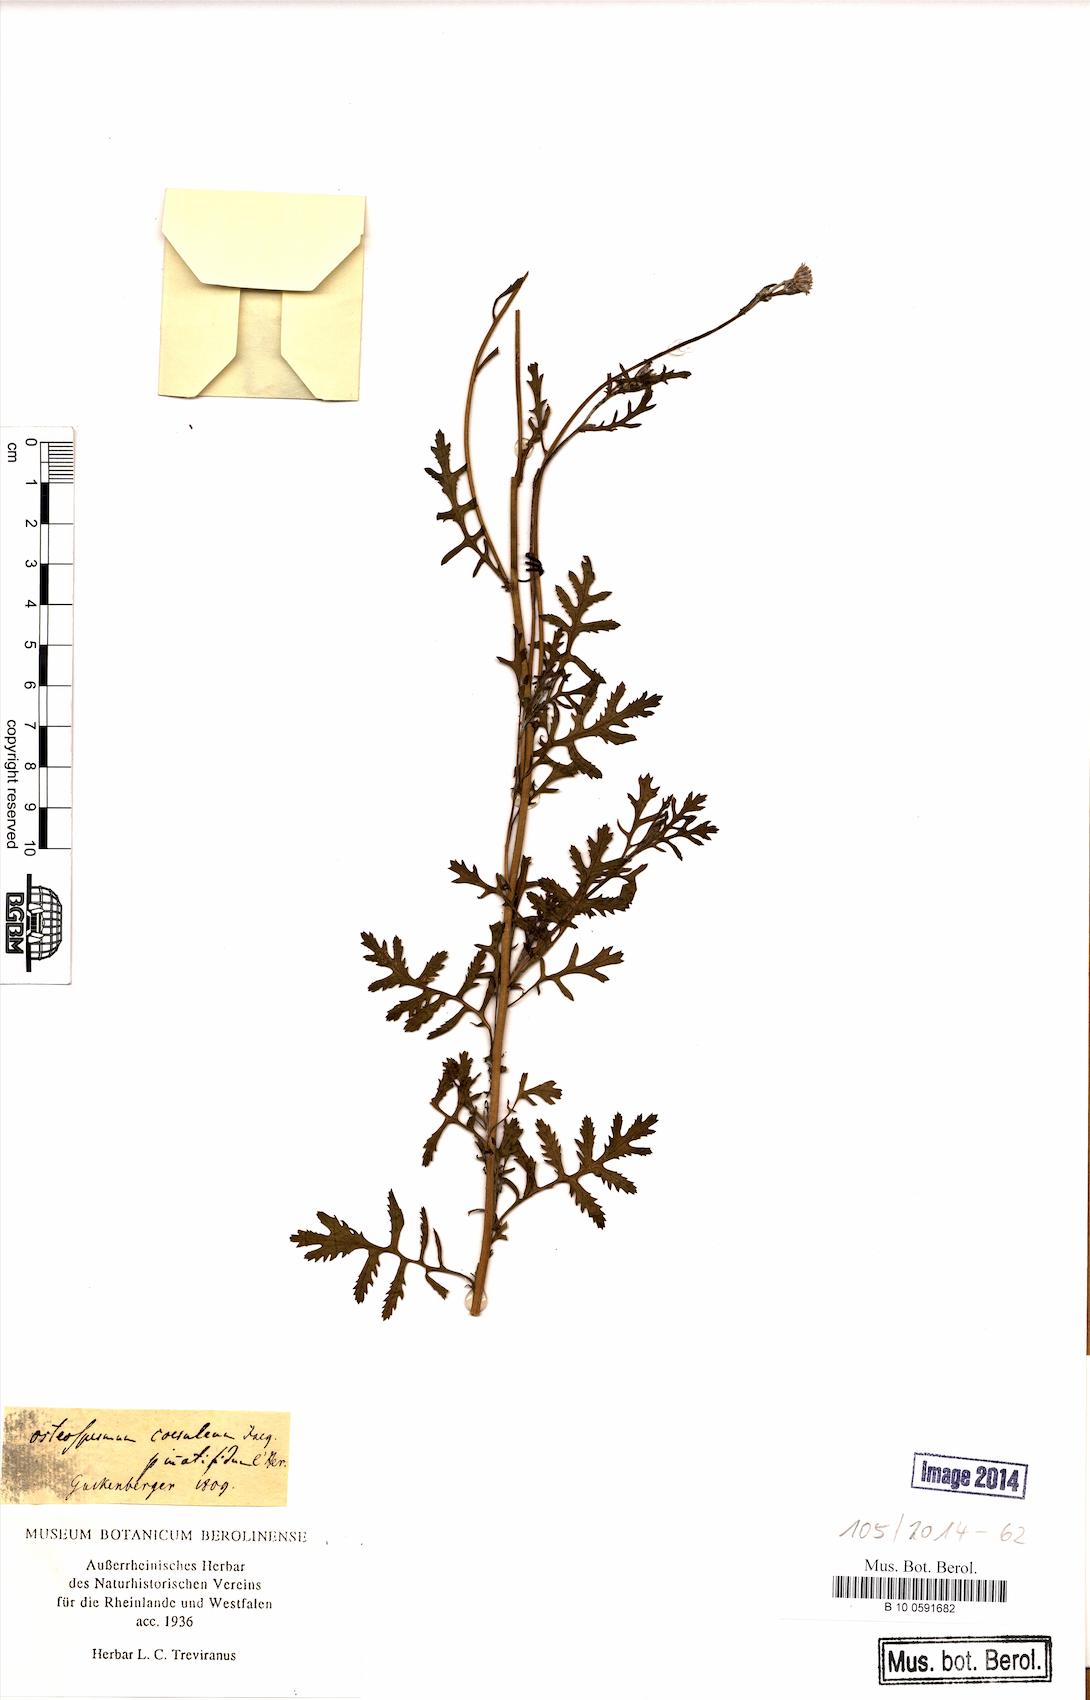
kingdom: Plantae
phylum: Tracheophyta
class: Magnoliopsida
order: Asterales
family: Asteraceae
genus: Garuleum
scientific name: Garuleum bipinnatum
